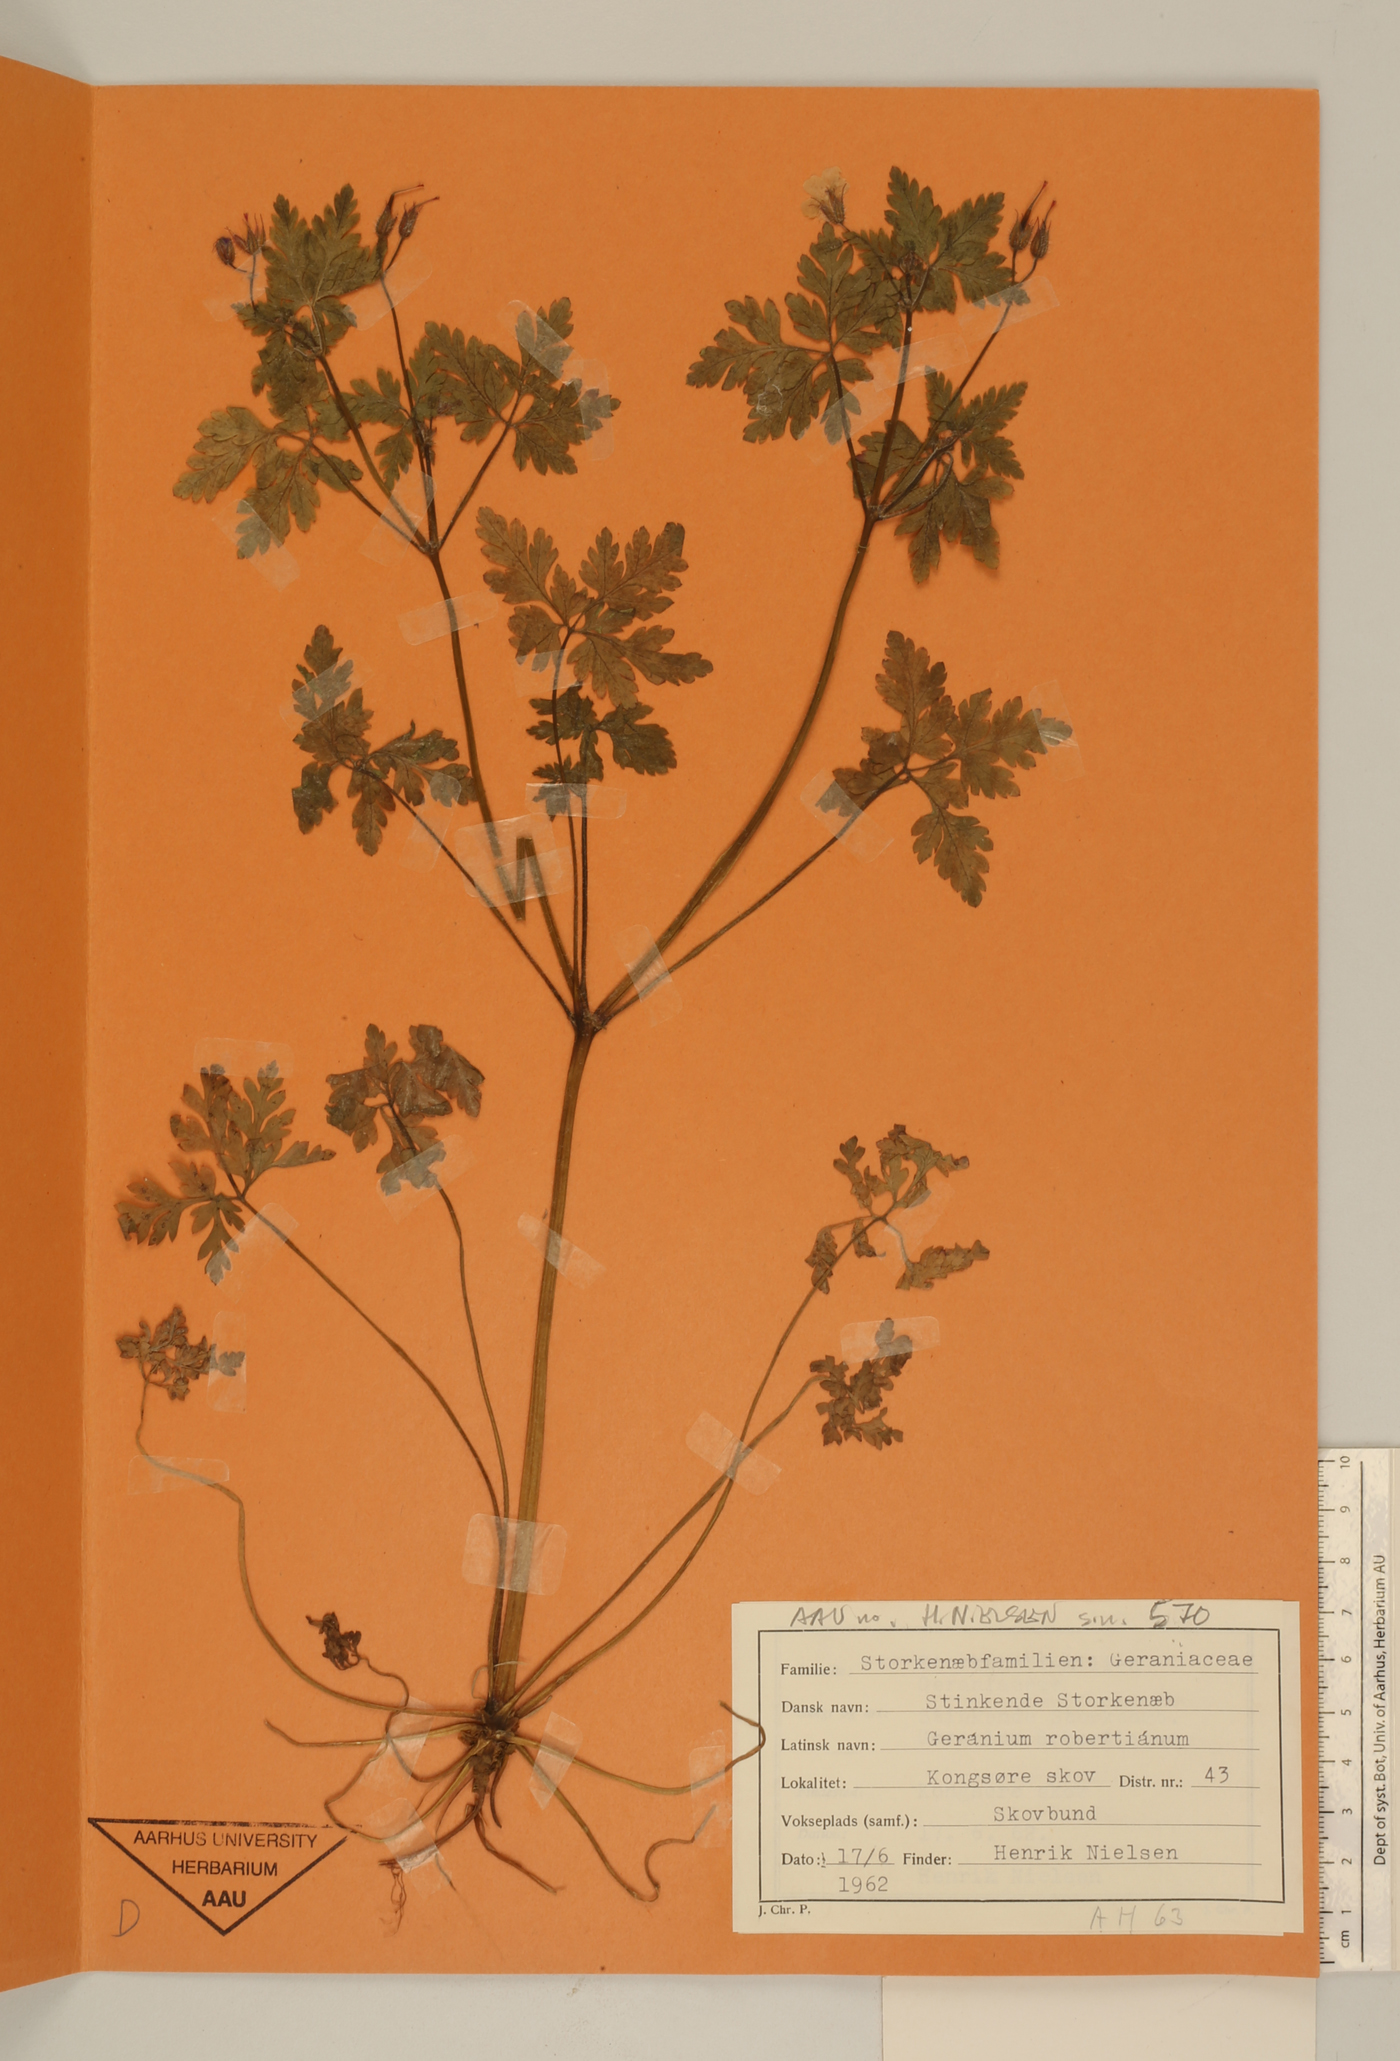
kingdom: Plantae
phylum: Tracheophyta
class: Magnoliopsida
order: Geraniales
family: Geraniaceae
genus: Geranium
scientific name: Geranium robertianum
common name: Herb-robert
